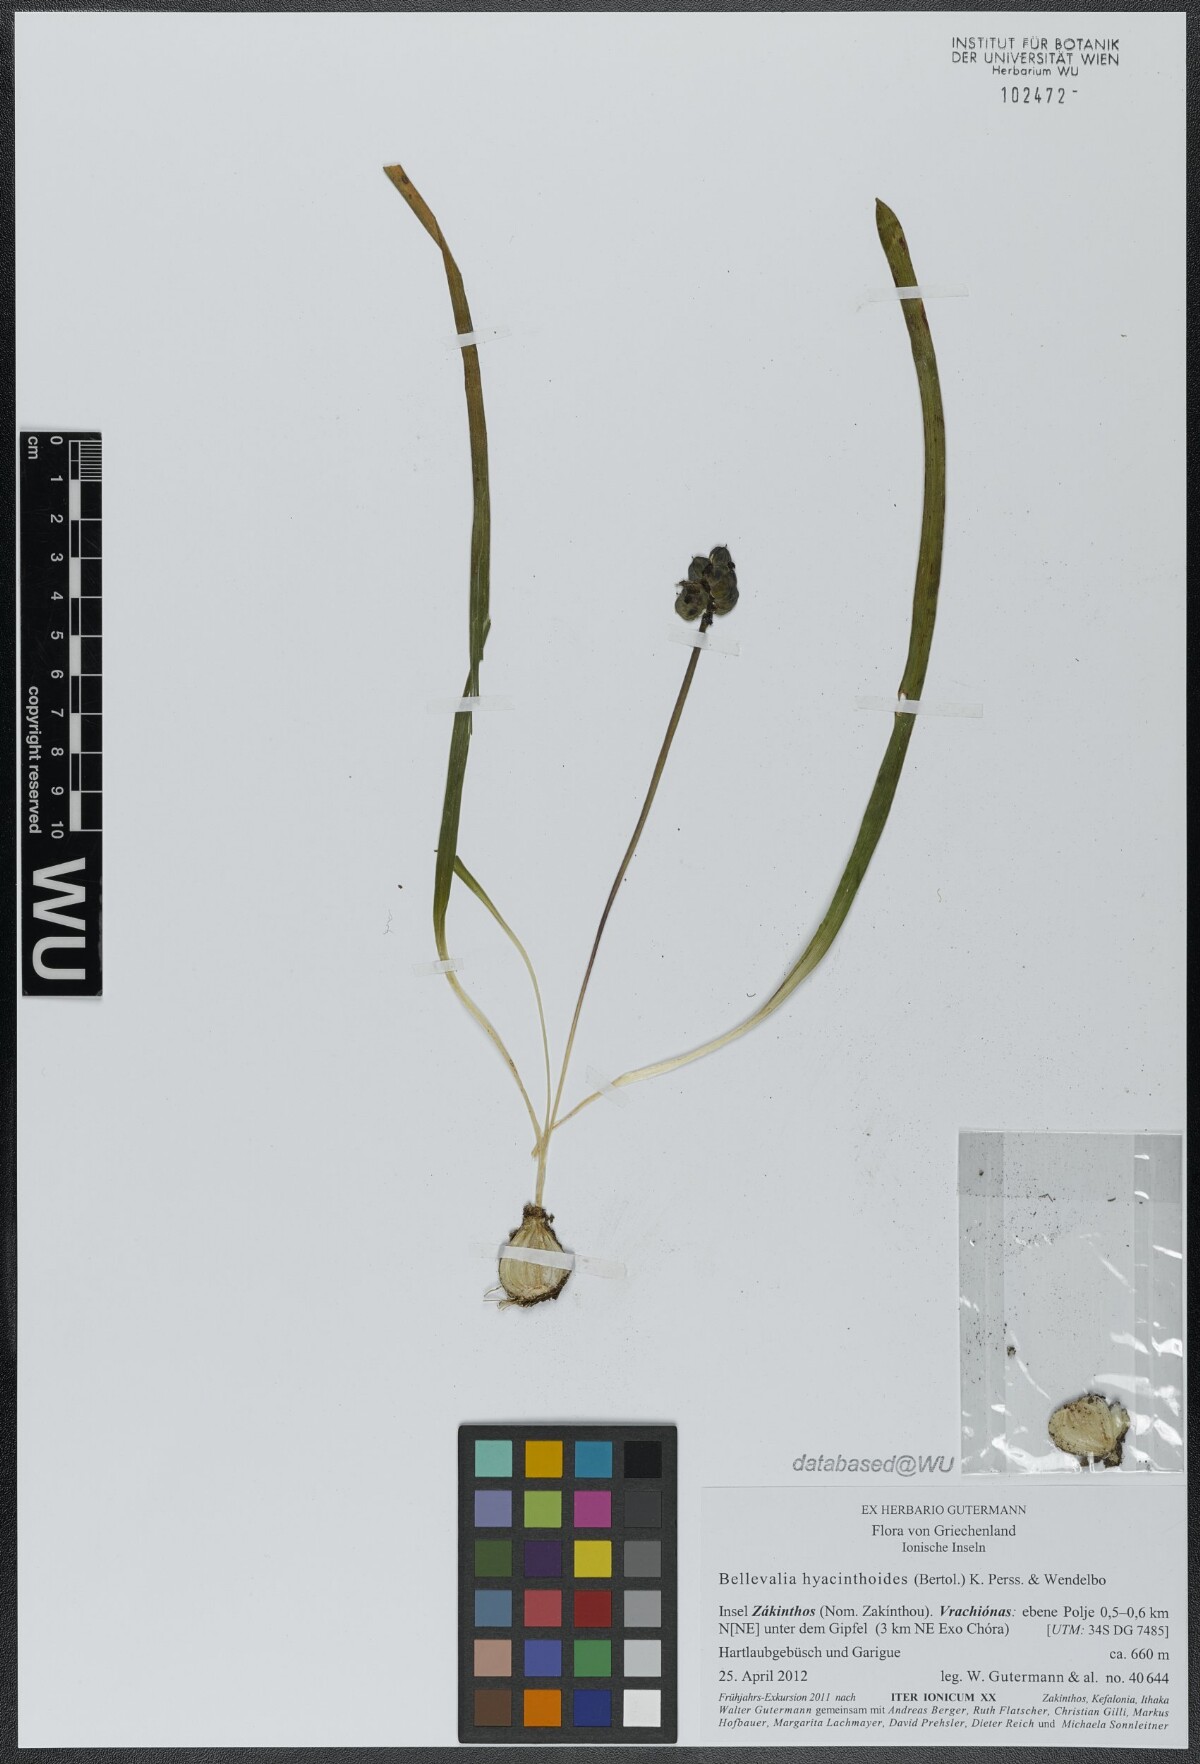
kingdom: Plantae
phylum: Tracheophyta
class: Liliopsida
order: Asparagales
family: Asparagaceae
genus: Bellevalia
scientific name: Bellevalia hyacinthoides
